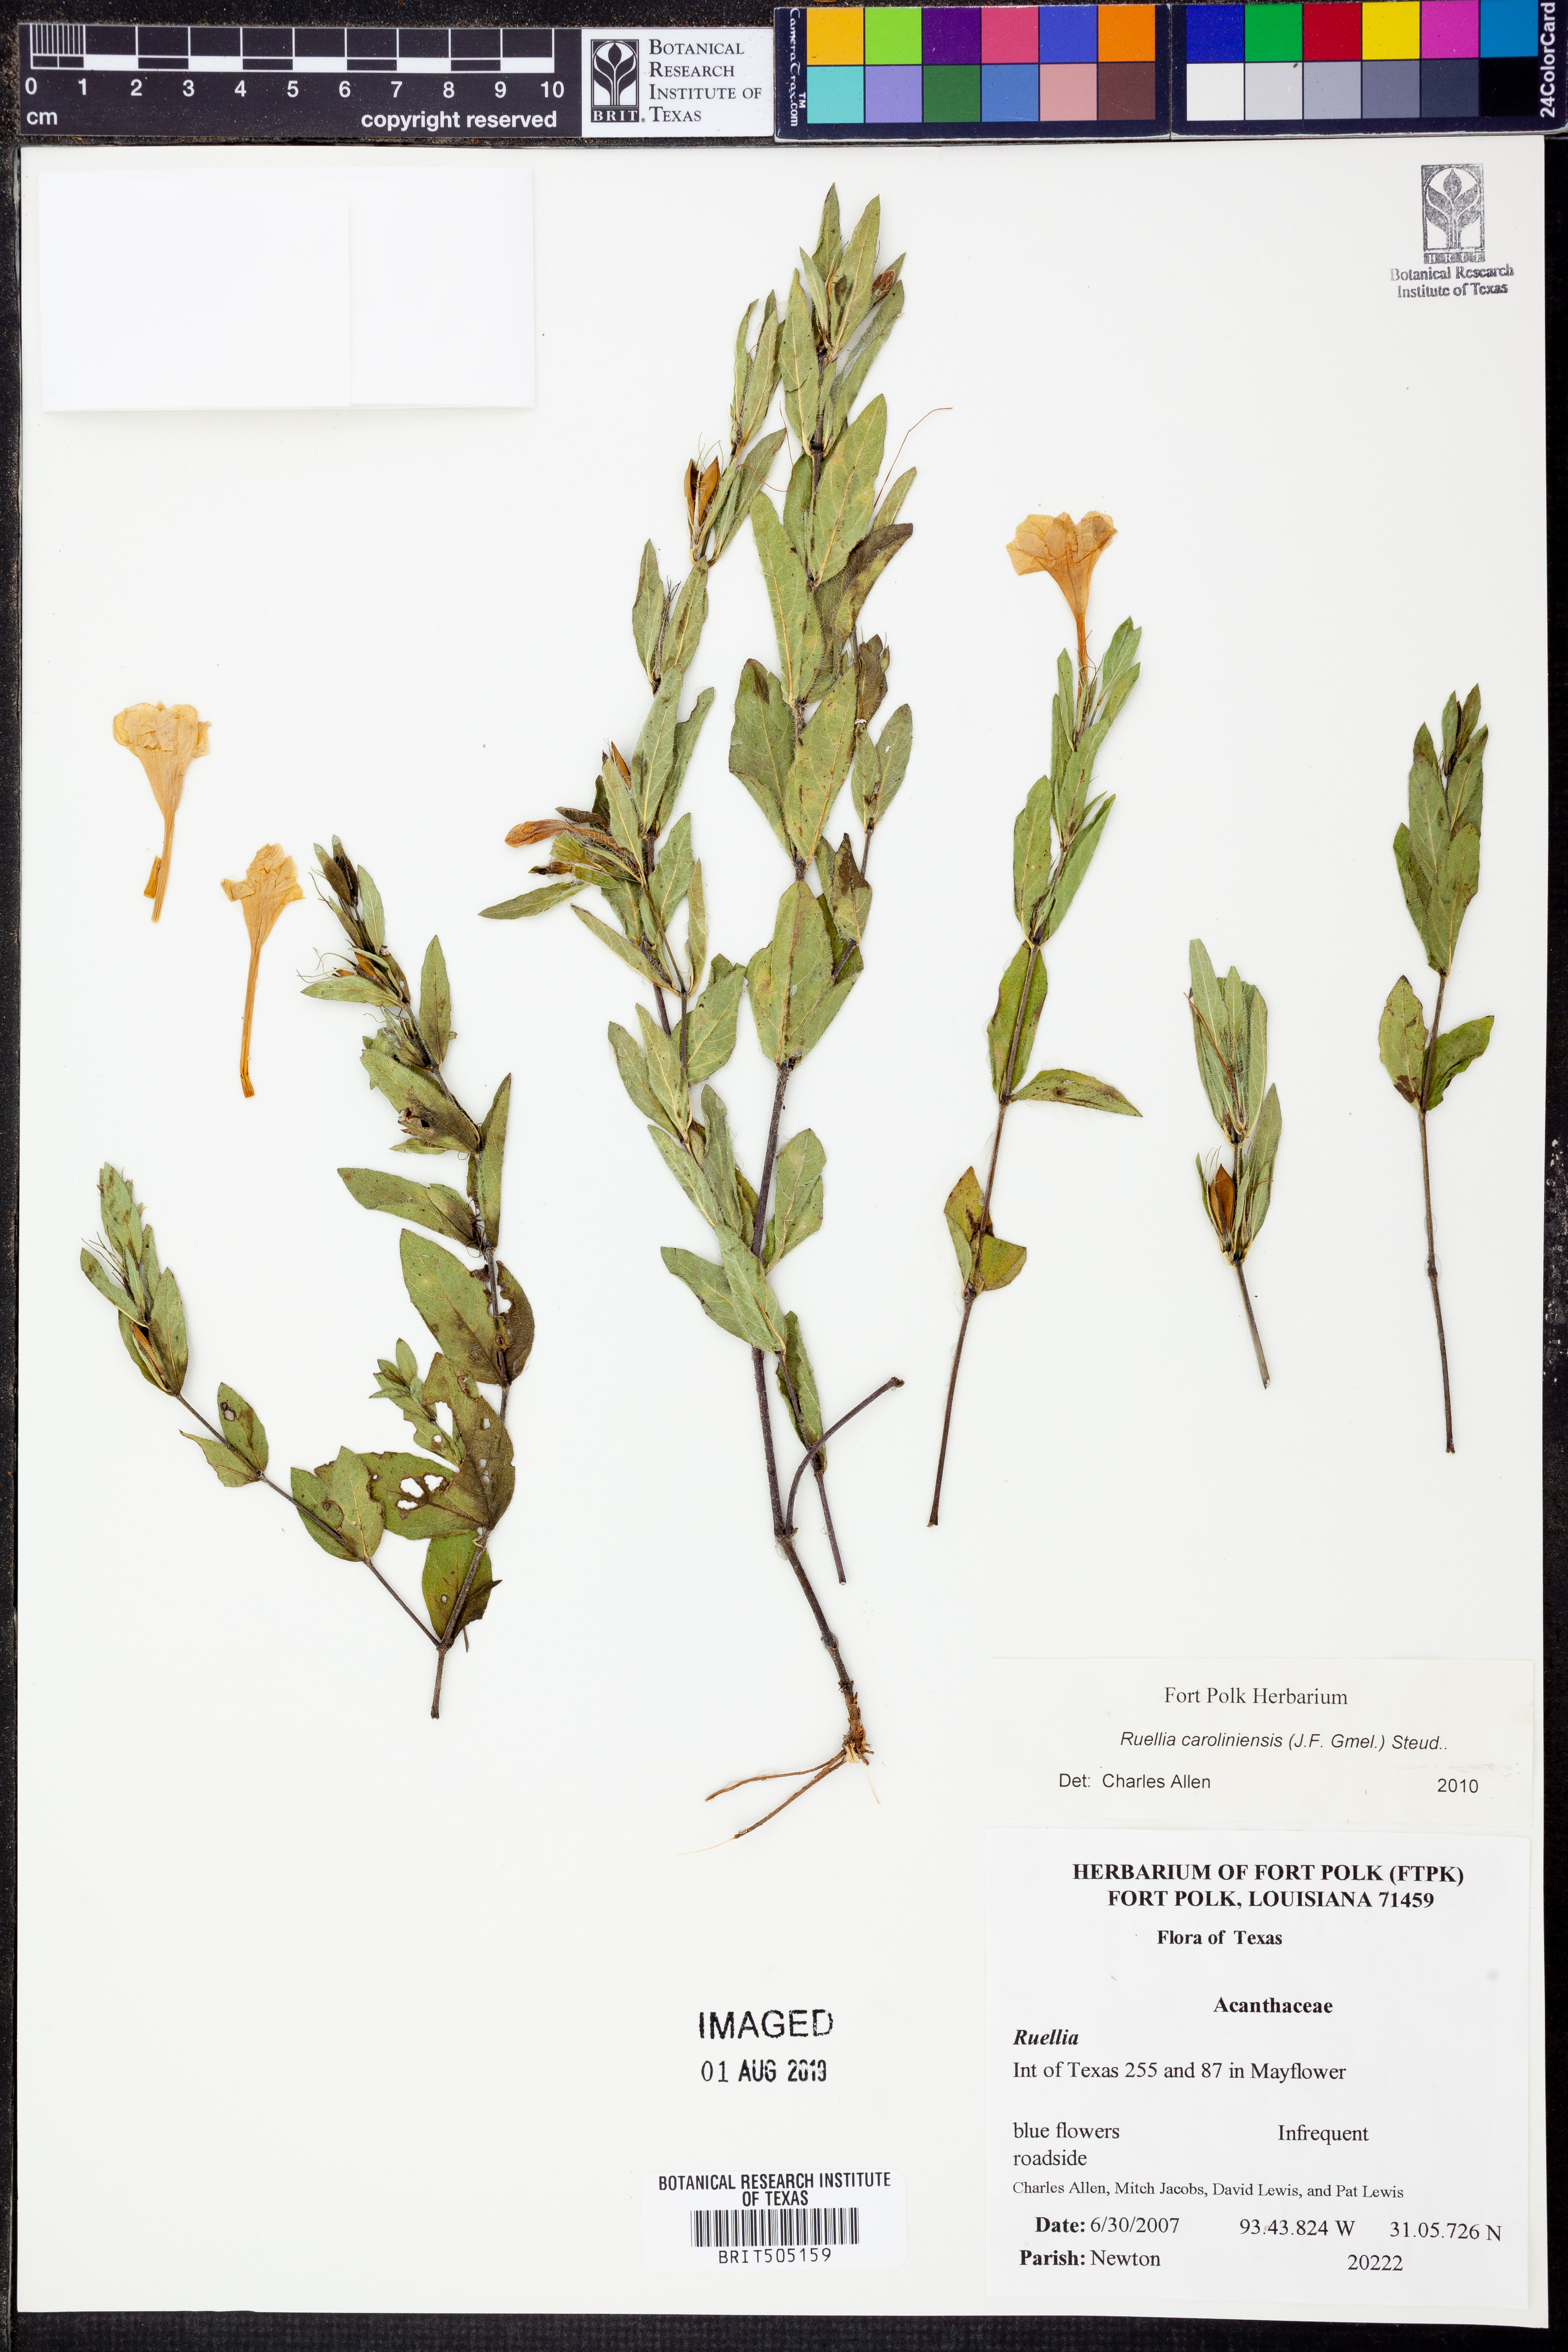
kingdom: Plantae
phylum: Tracheophyta
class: Magnoliopsida
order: Lamiales
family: Acanthaceae
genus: Ruellia
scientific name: Ruellia caroliniensis
